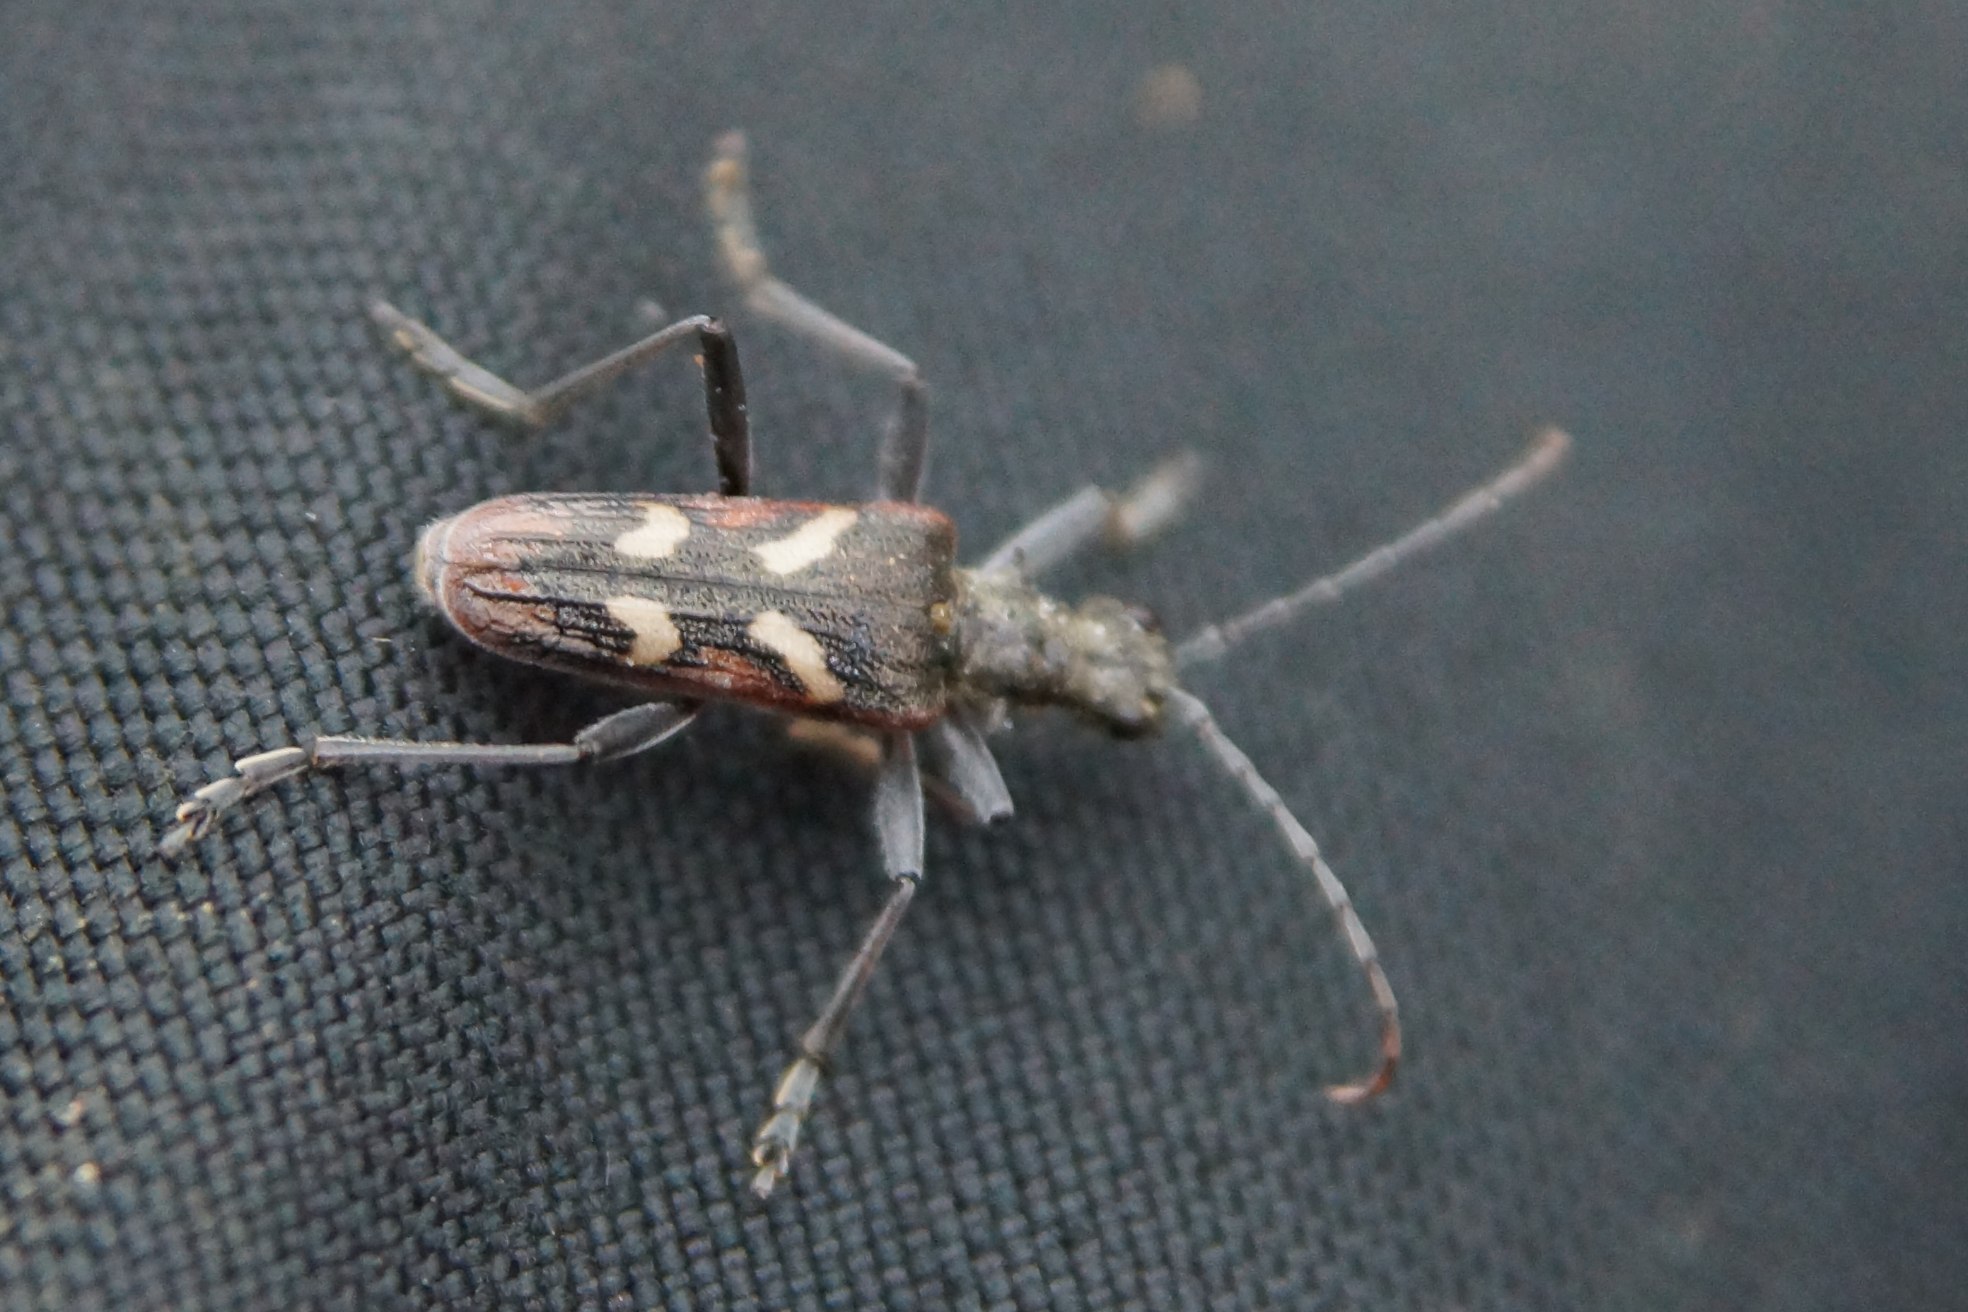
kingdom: Animalia
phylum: Arthropoda
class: Insecta
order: Coleoptera
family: Cerambycidae
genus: Rhagium
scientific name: Rhagium bifasciatum
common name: Båndet tandbuk
